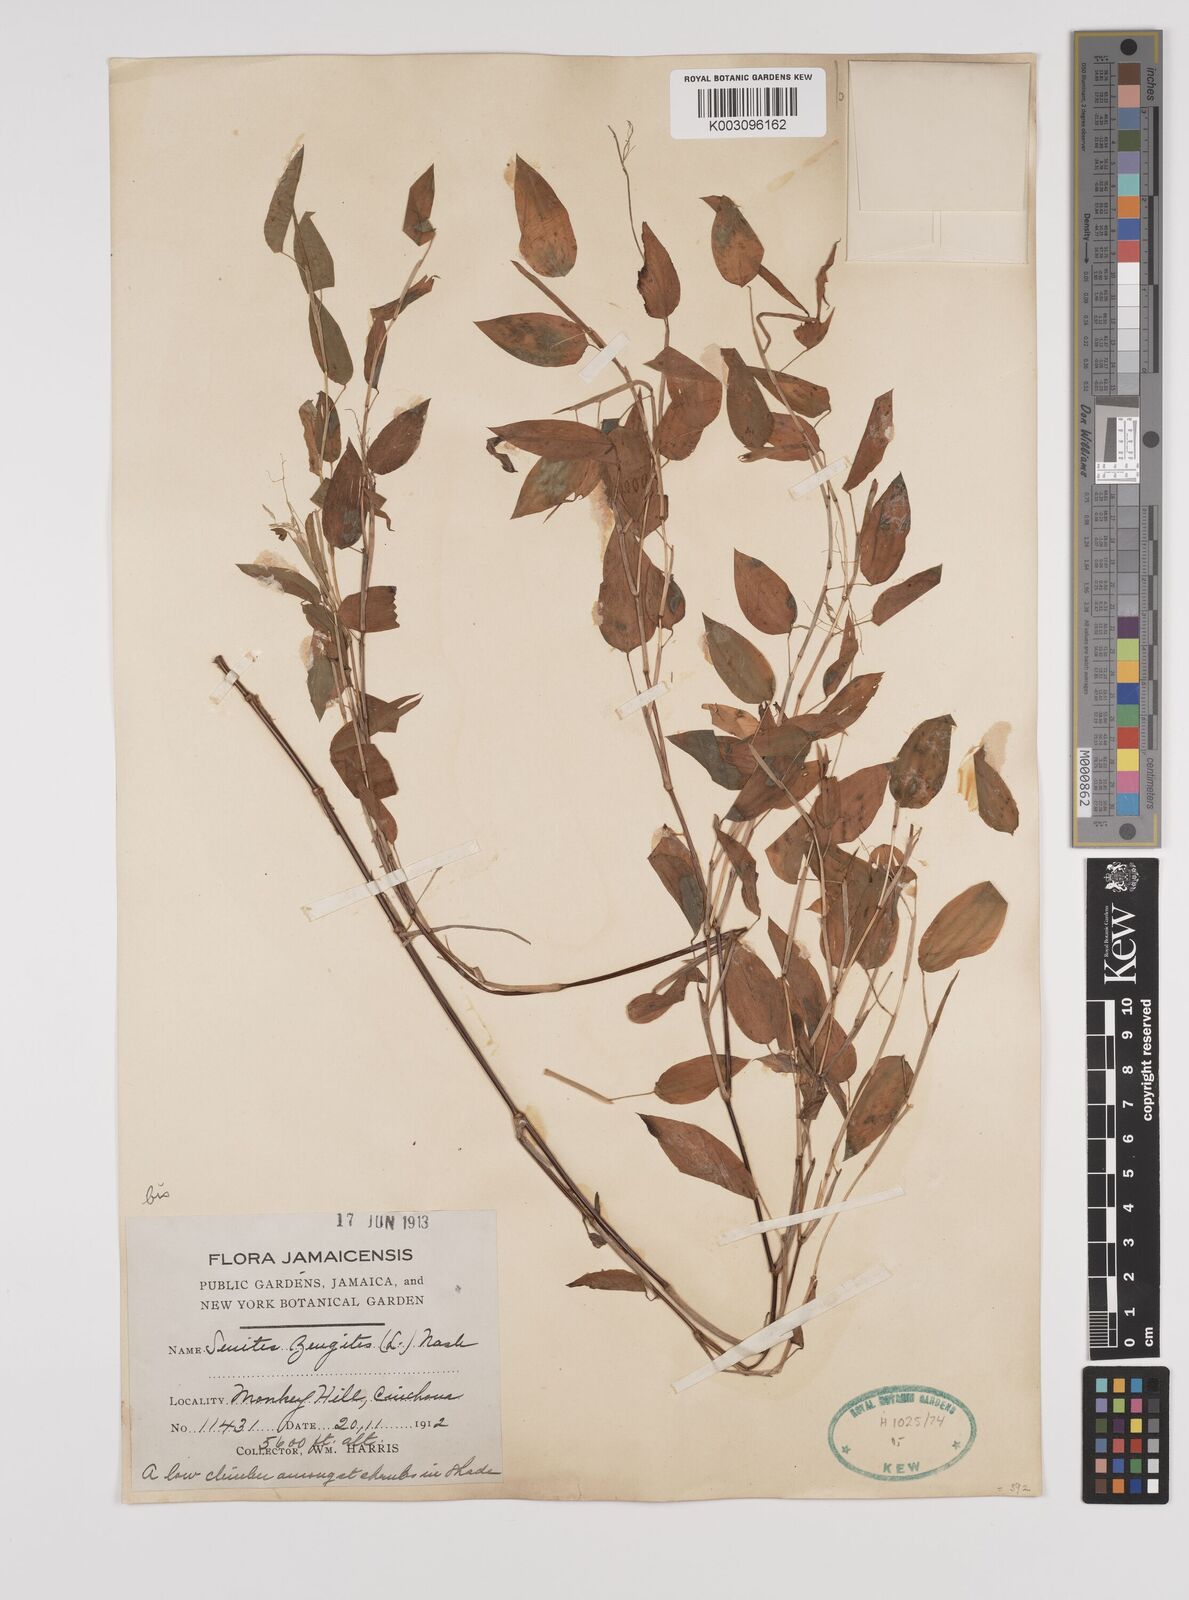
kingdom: Plantae
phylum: Tracheophyta
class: Liliopsida
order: Poales
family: Poaceae
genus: Zeugites
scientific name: Zeugites americanus
